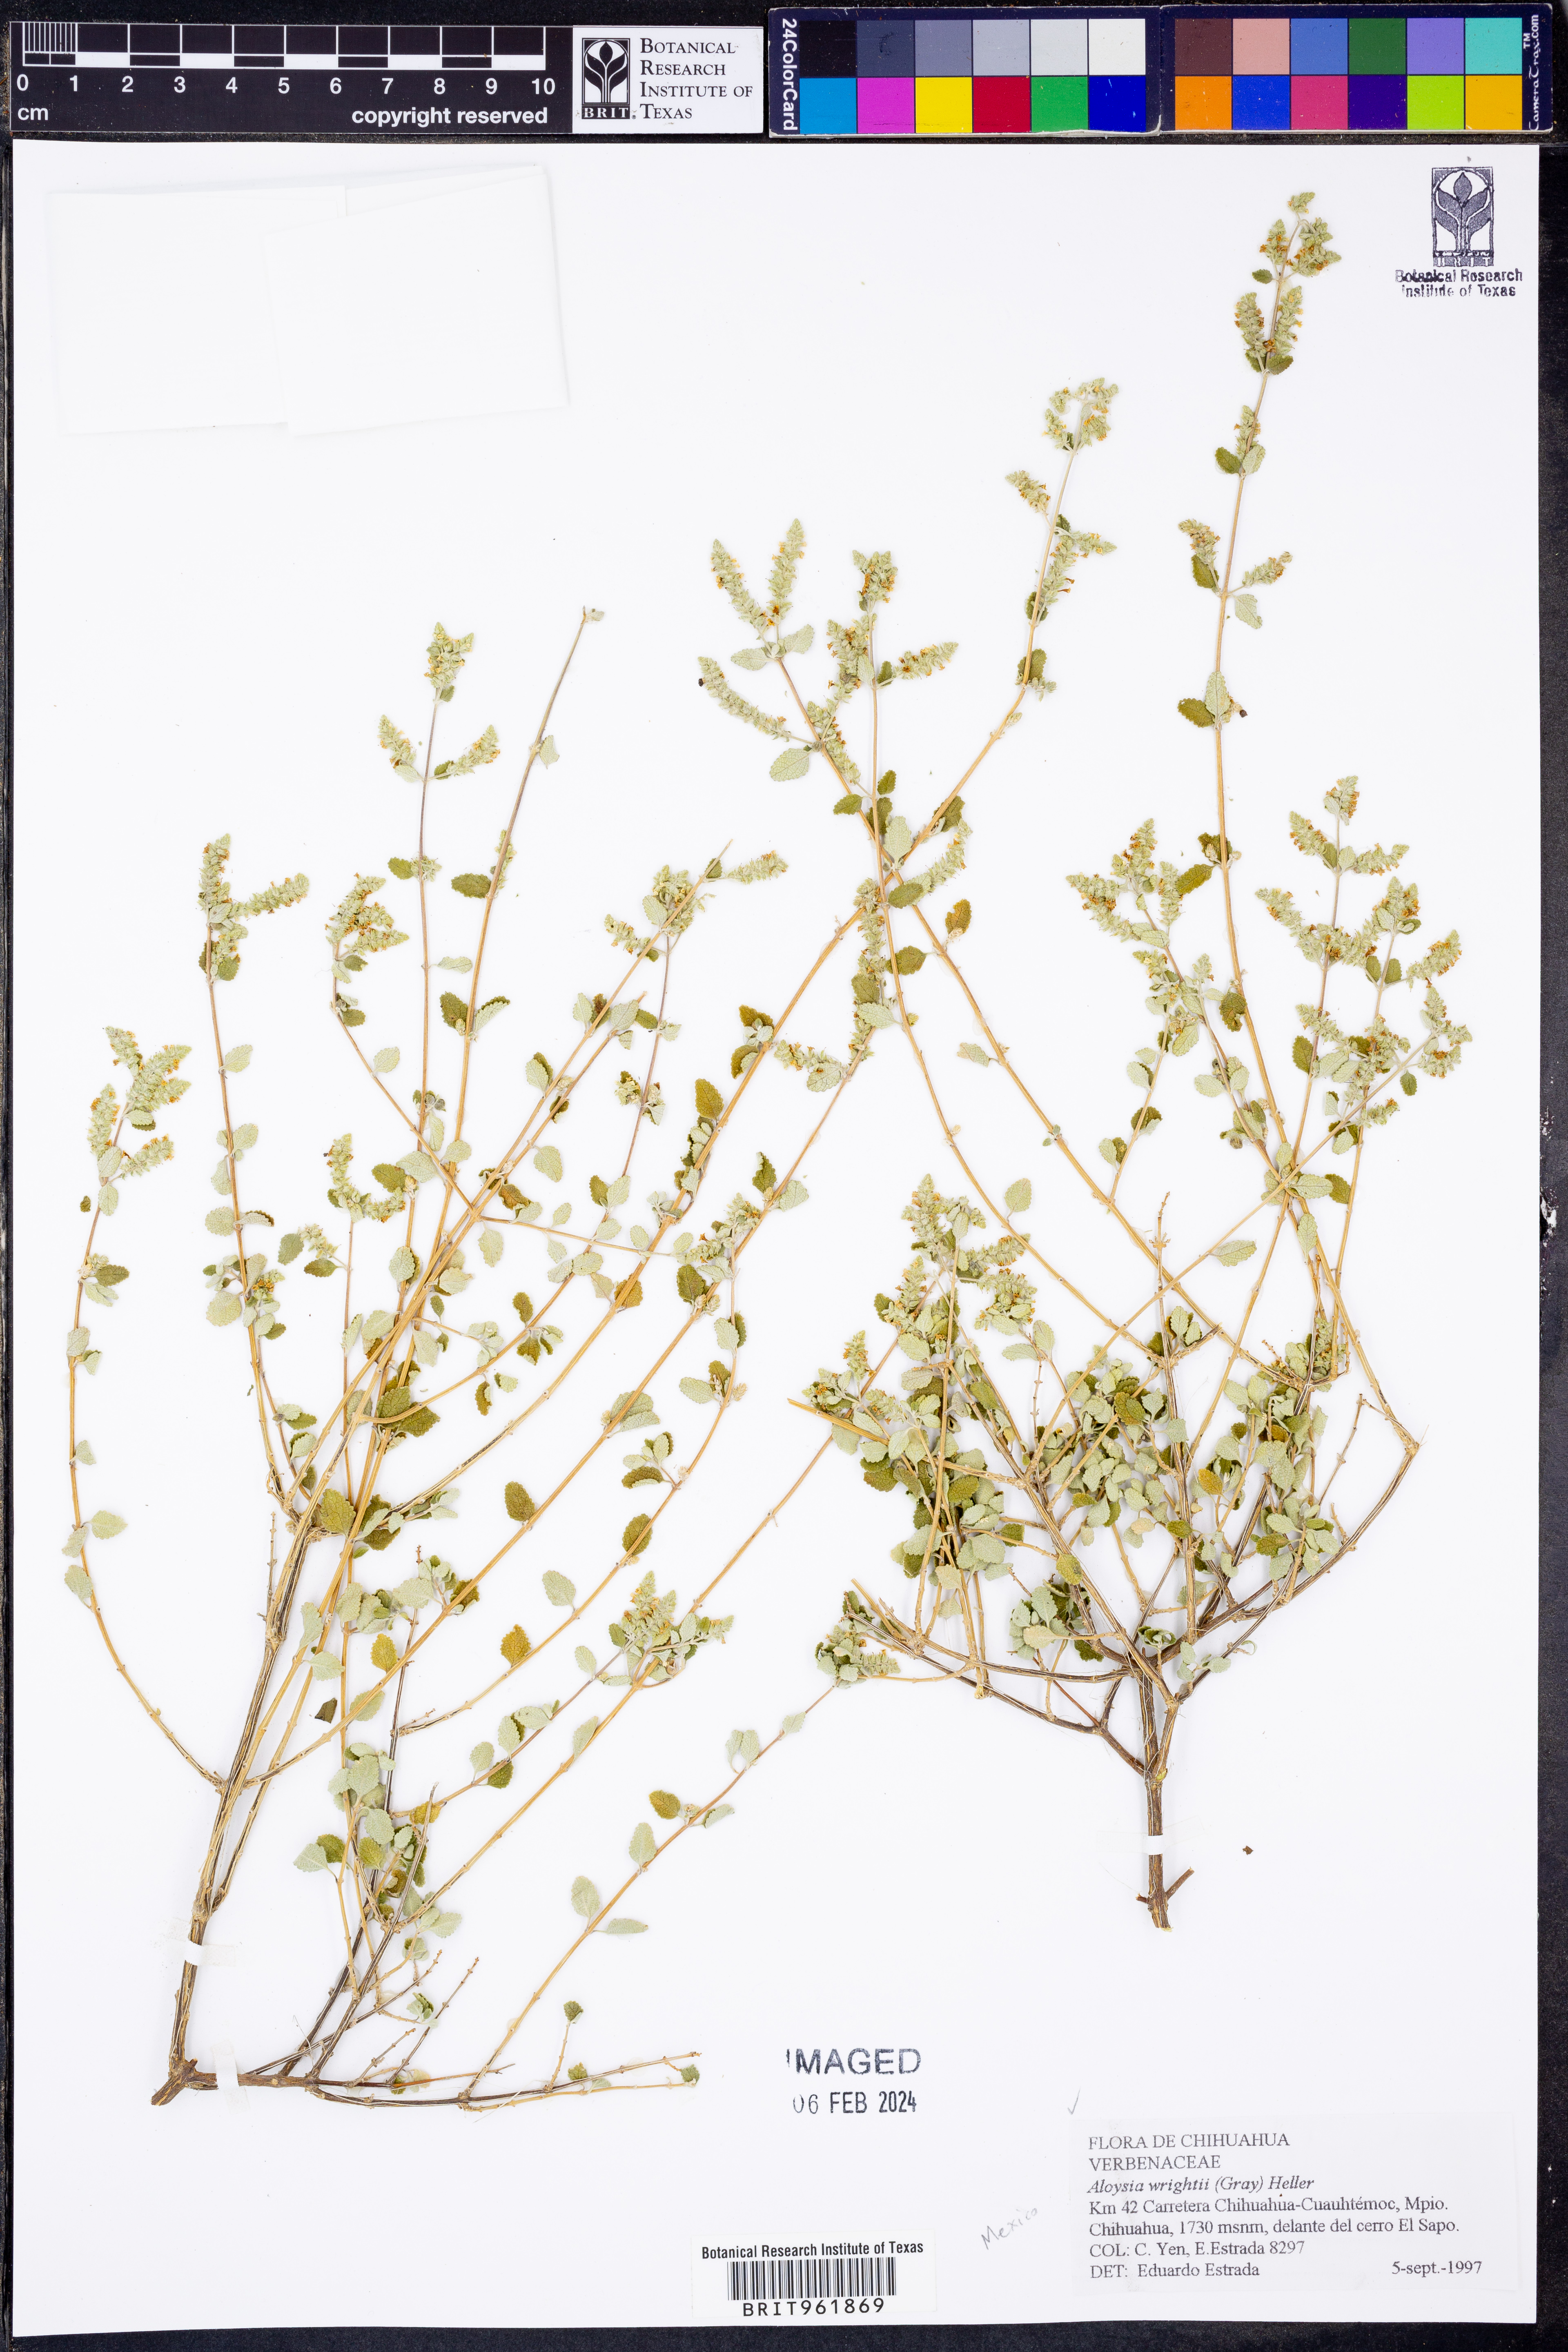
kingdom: Plantae
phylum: Tracheophyta
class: Magnoliopsida
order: Lamiales
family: Verbenaceae
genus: Aloysia
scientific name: Aloysia wrightii
